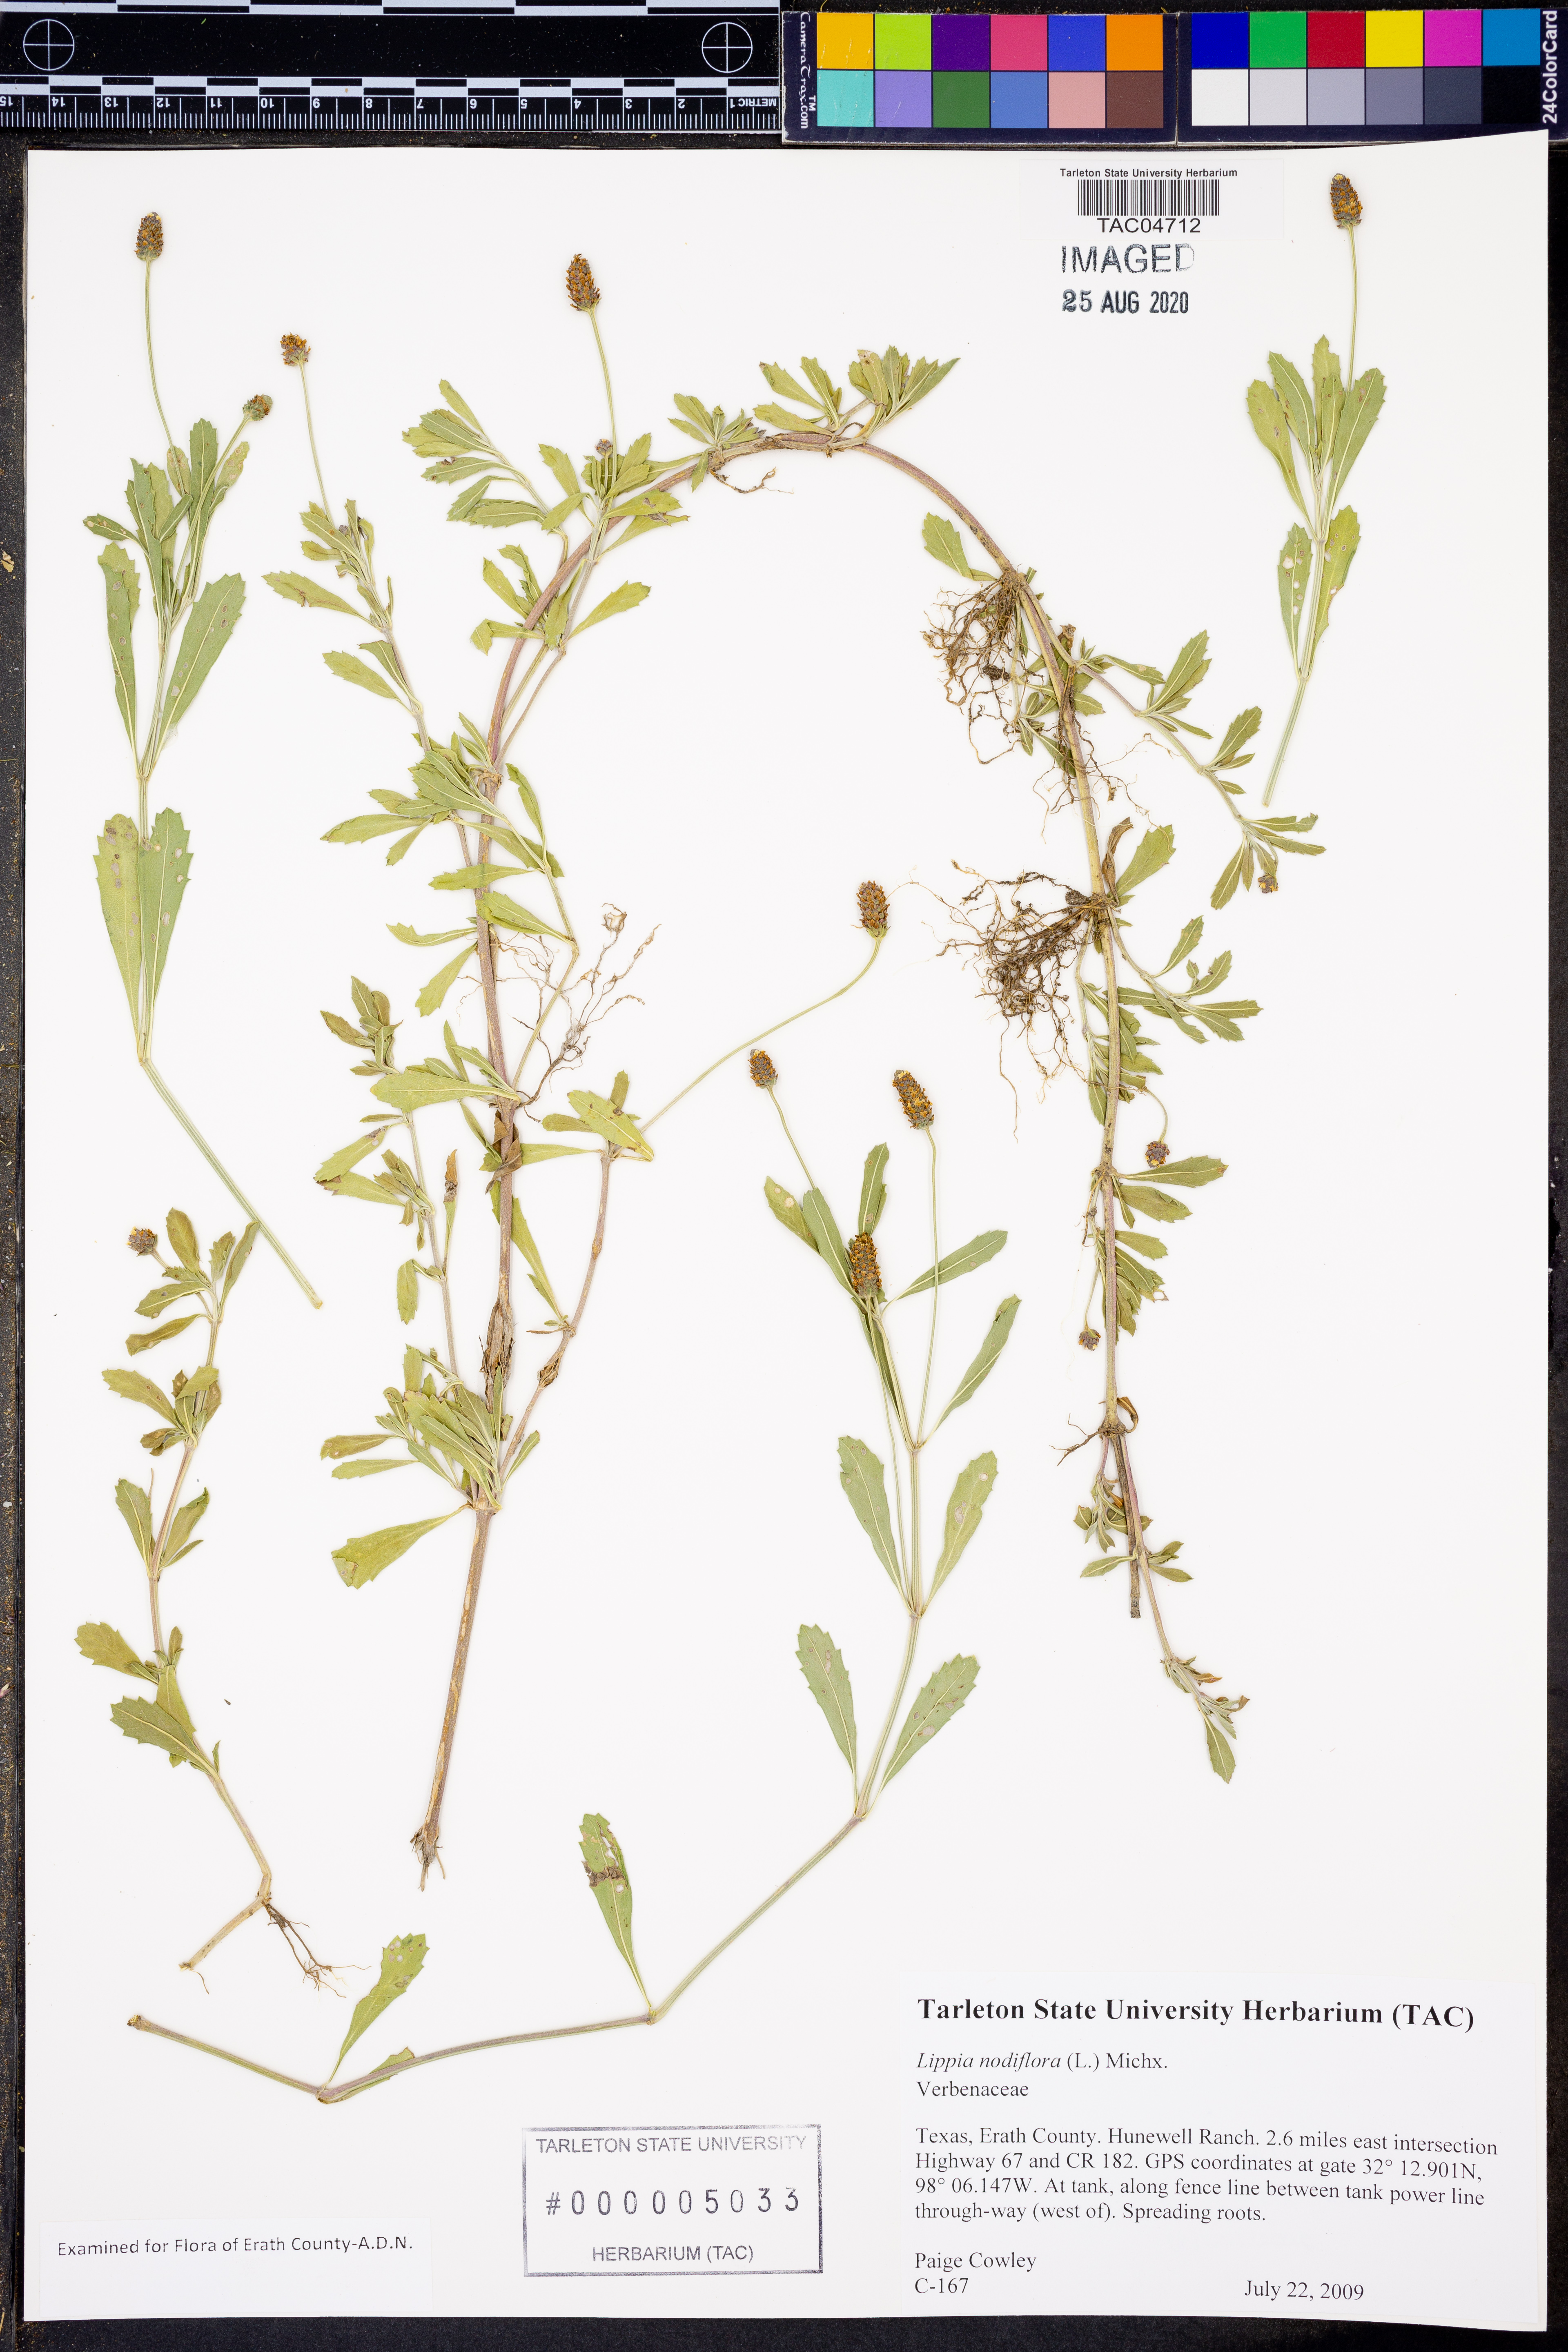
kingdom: Plantae
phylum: Tracheophyta
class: Magnoliopsida
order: Lamiales
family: Verbenaceae
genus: Phyla
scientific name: Phyla nodiflora
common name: Frogfruit
